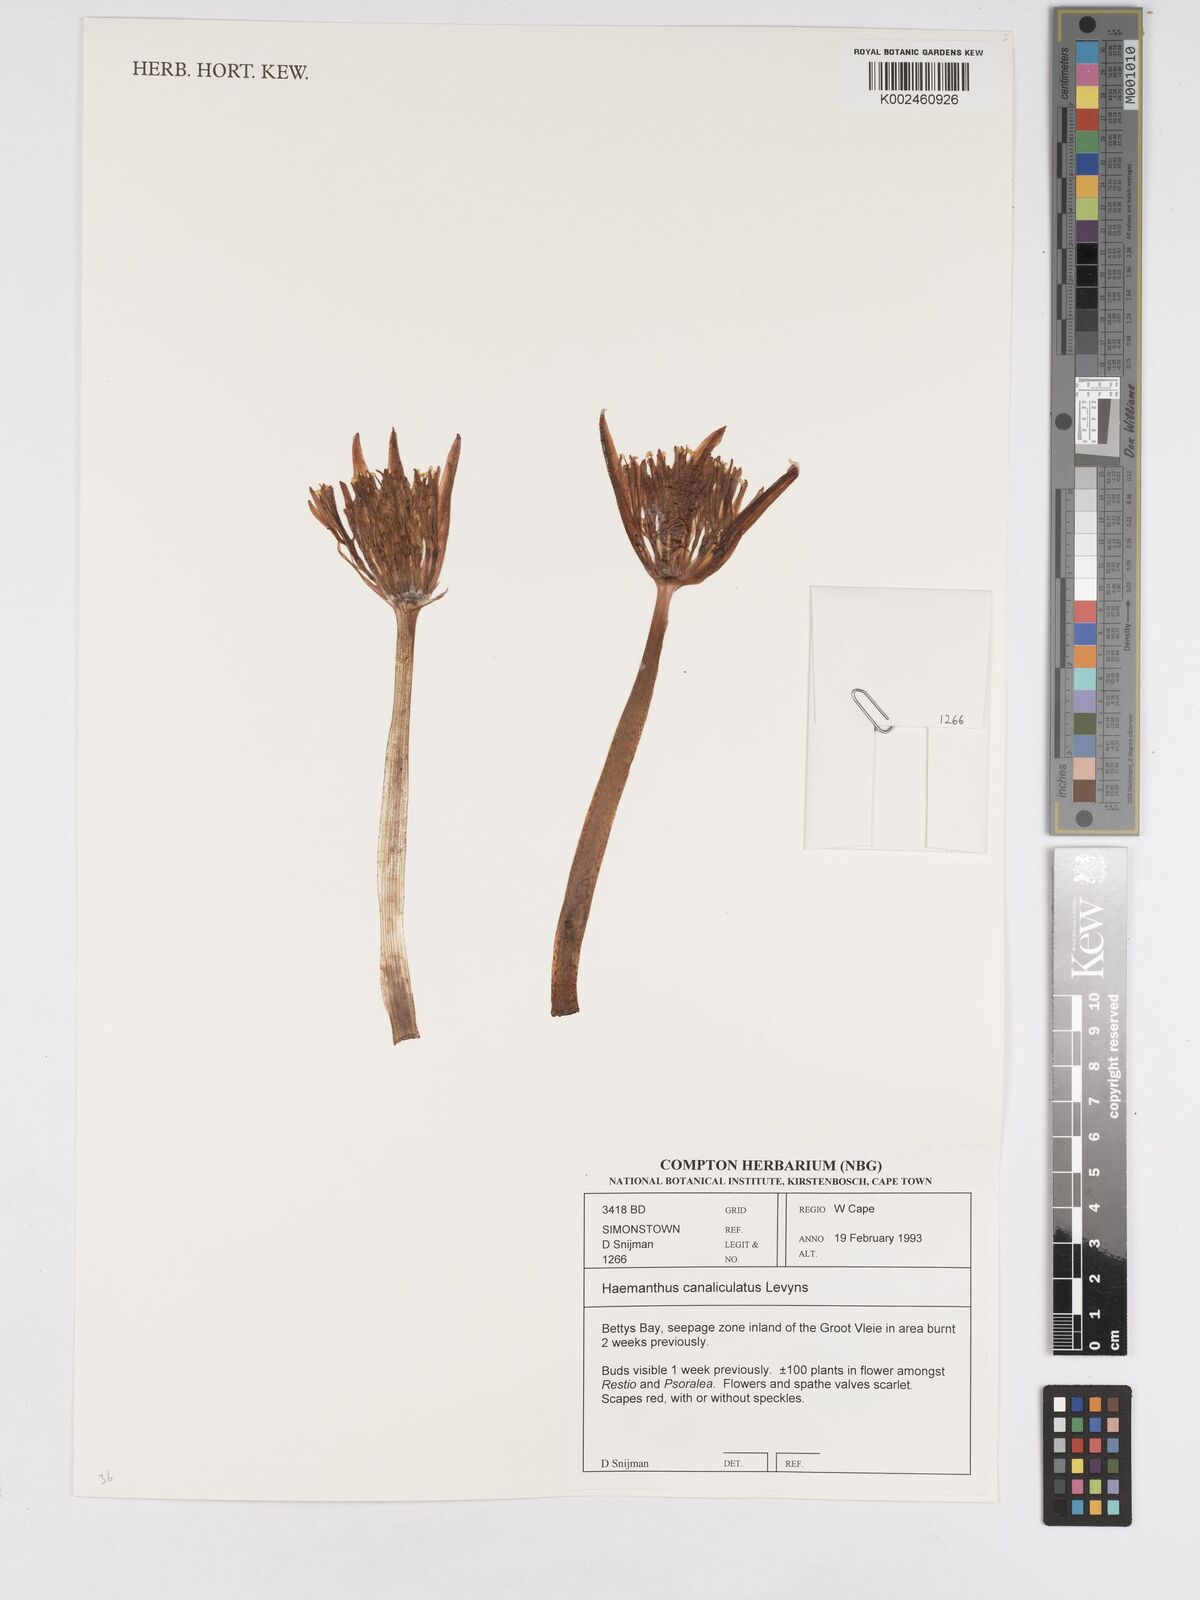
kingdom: Plantae
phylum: Tracheophyta
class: Liliopsida
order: Asparagales
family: Amaryllidaceae
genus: Haemanthus
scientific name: Haemanthus canaliculatus
